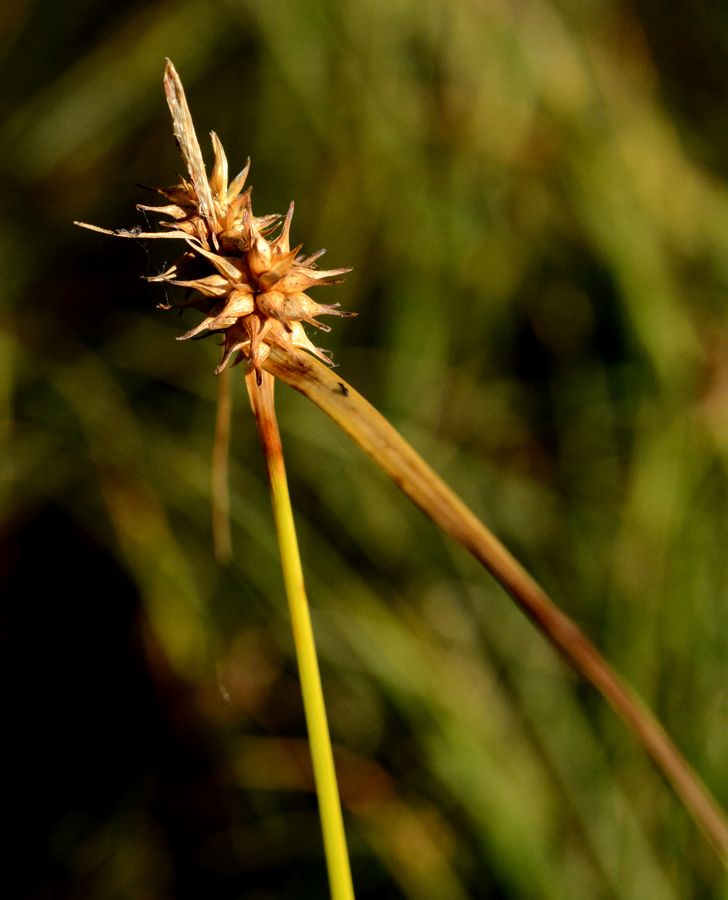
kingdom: Plantae
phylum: Tracheophyta
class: Liliopsida
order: Poales
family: Cyperaceae
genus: Carex
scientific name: Carex flava
